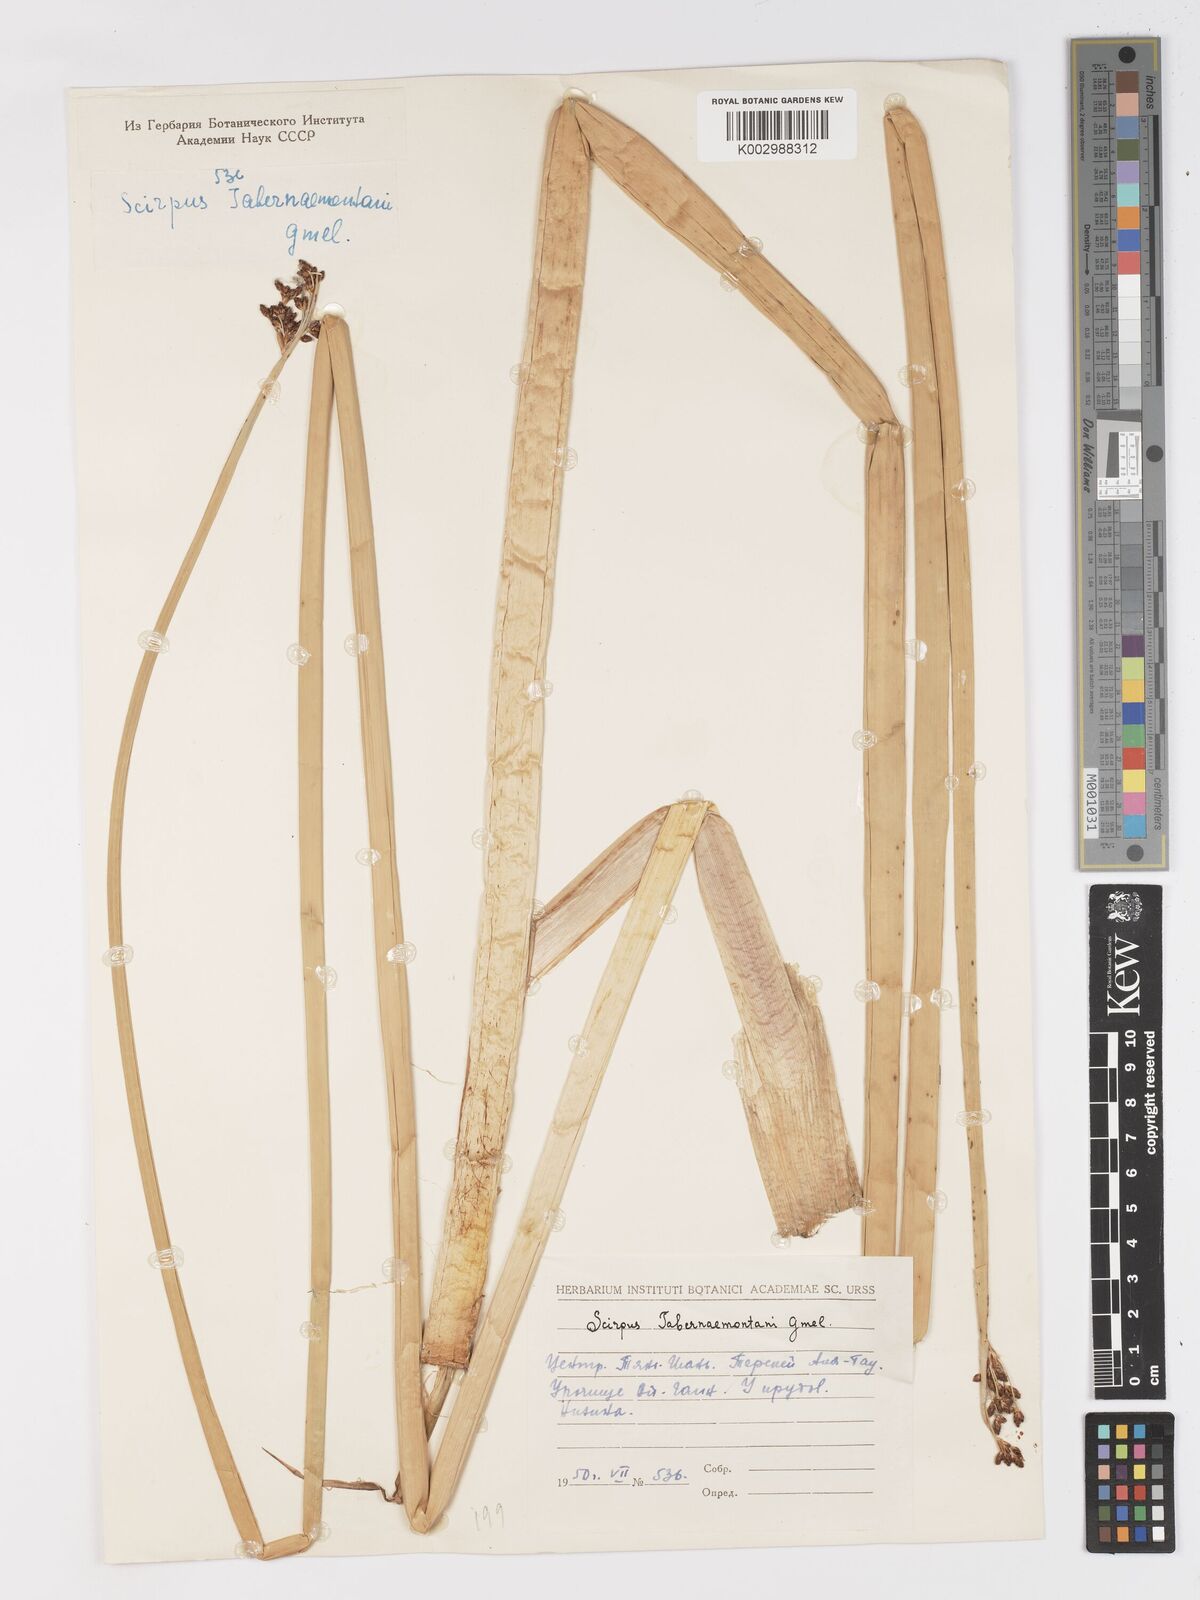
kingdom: Plantae
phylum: Tracheophyta
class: Liliopsida
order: Poales
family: Cyperaceae
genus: Schoenoplectus
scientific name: Schoenoplectus tabernaemontani
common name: Grey club-rush
